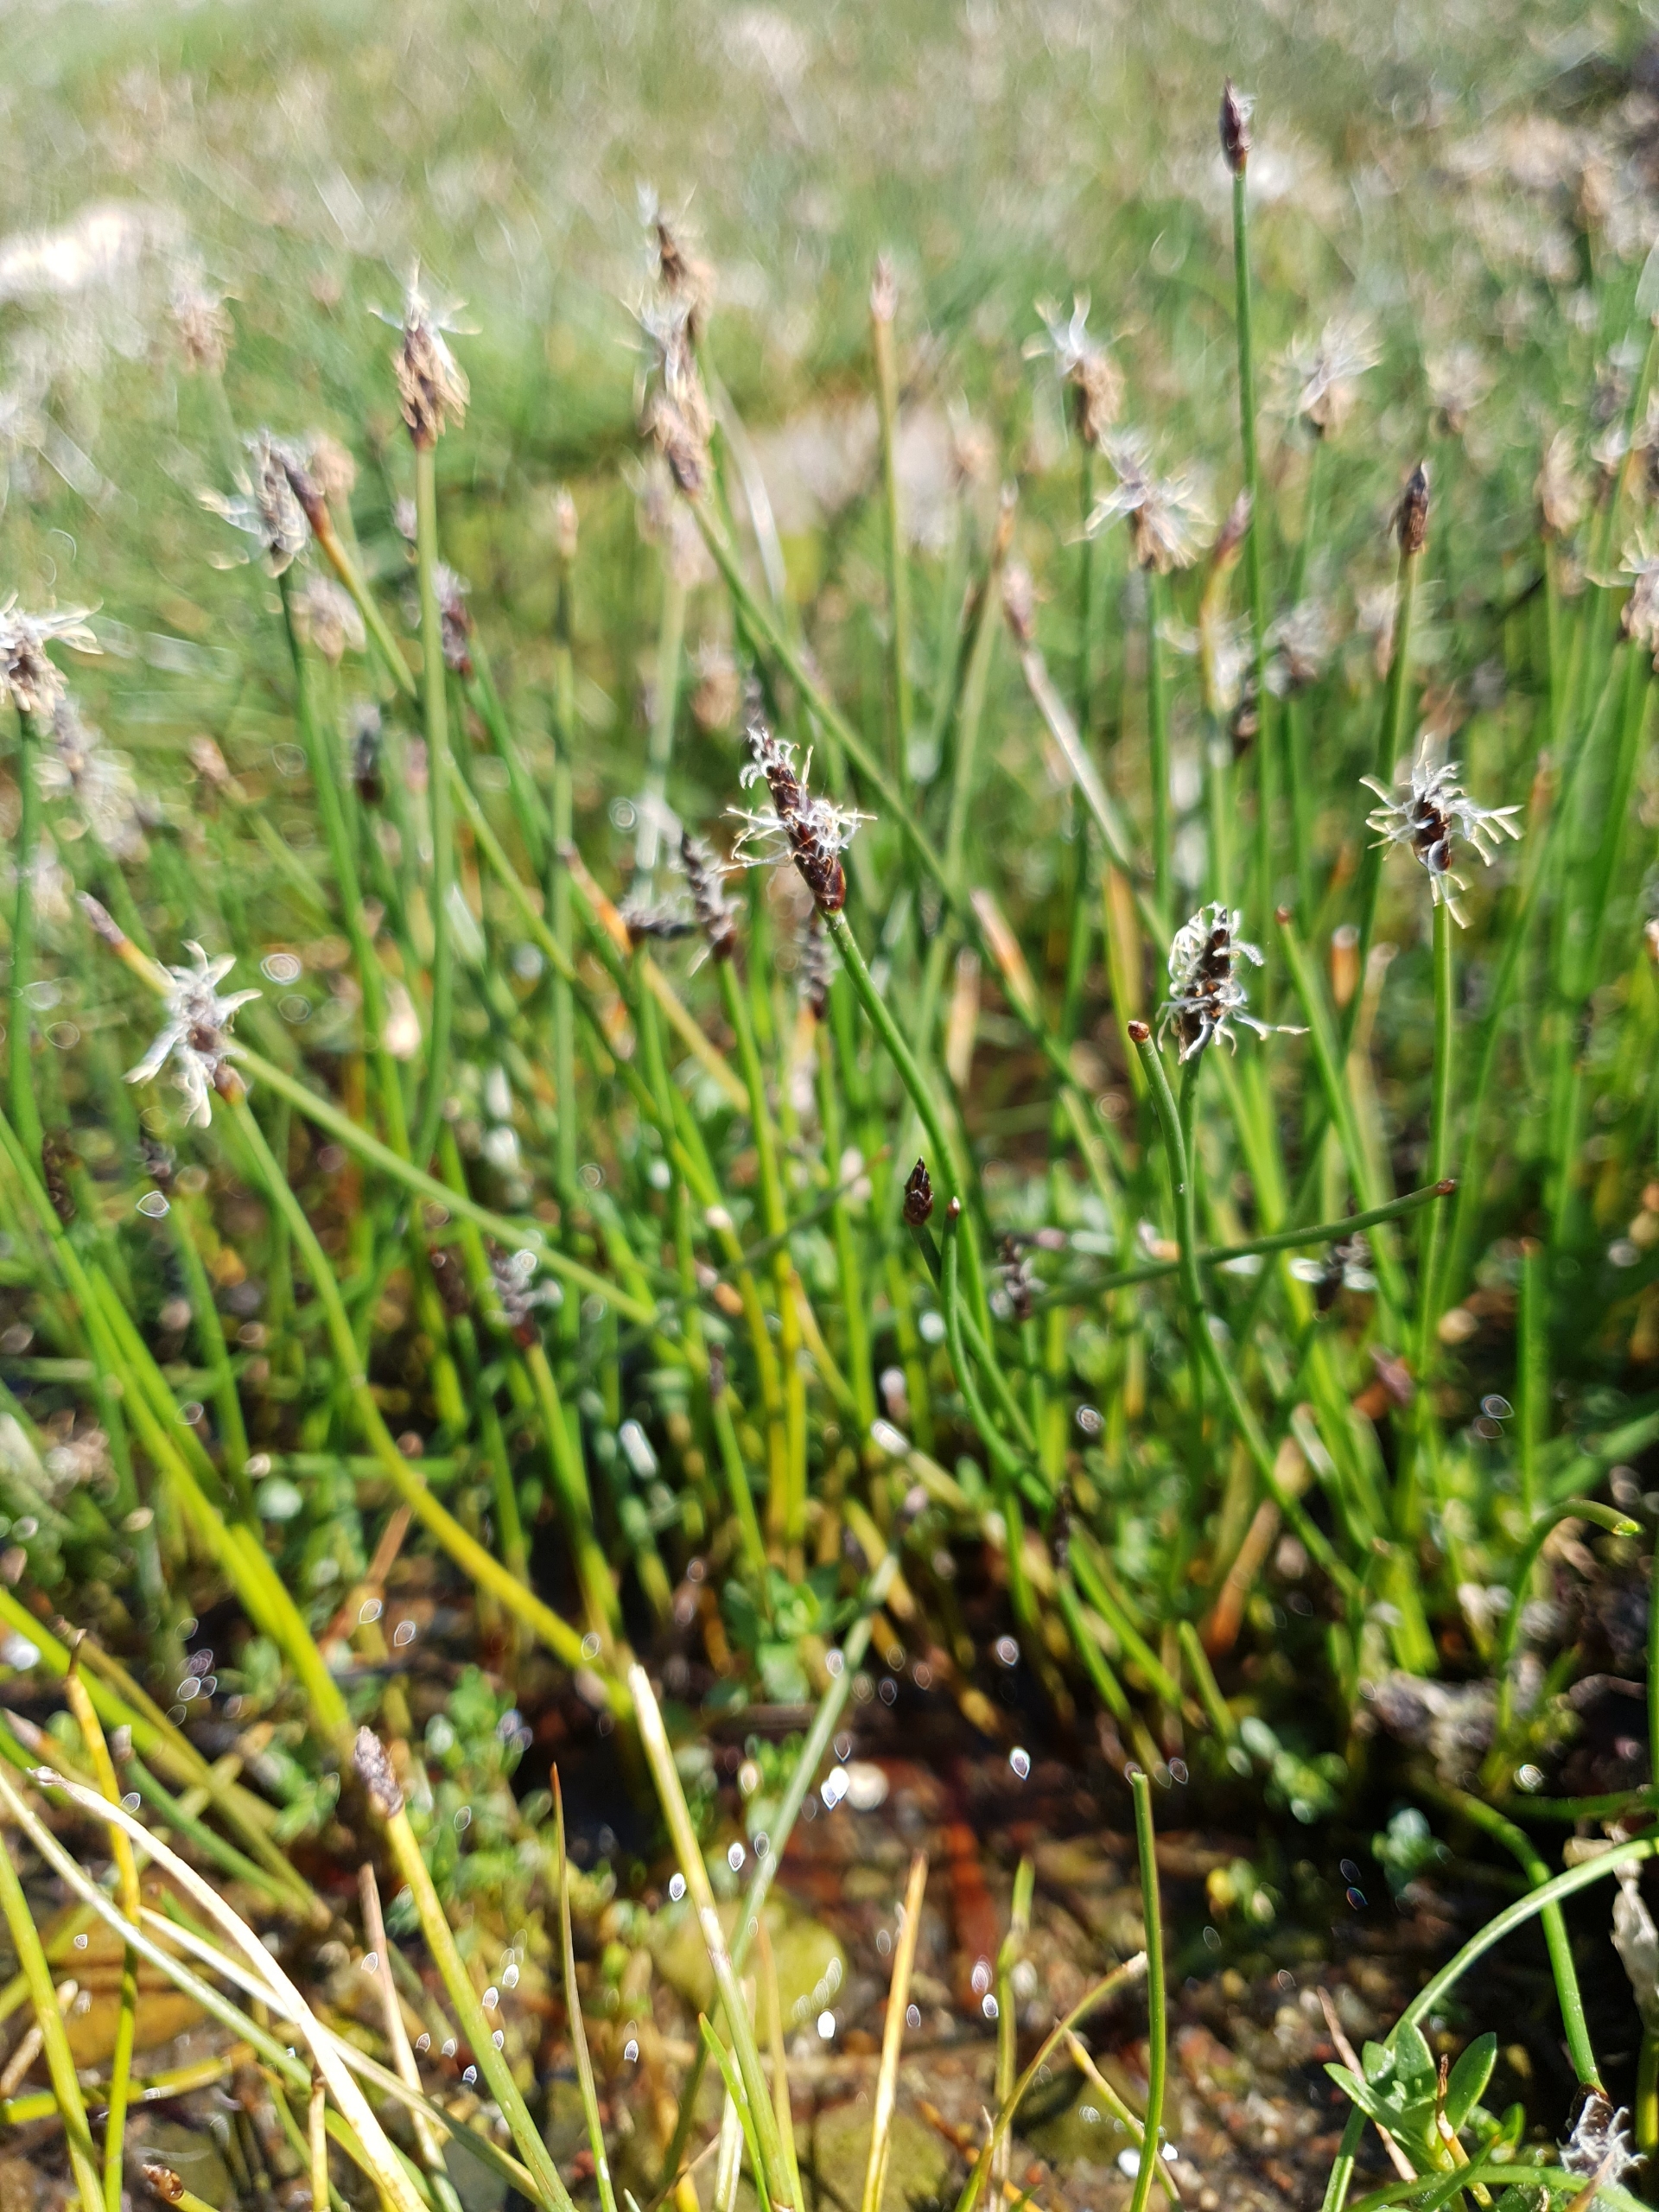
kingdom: Plantae
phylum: Tracheophyta
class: Liliopsida
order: Poales
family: Cyperaceae
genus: Eleocharis
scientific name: Eleocharis uniglumis
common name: Enskællet sumpstrå
